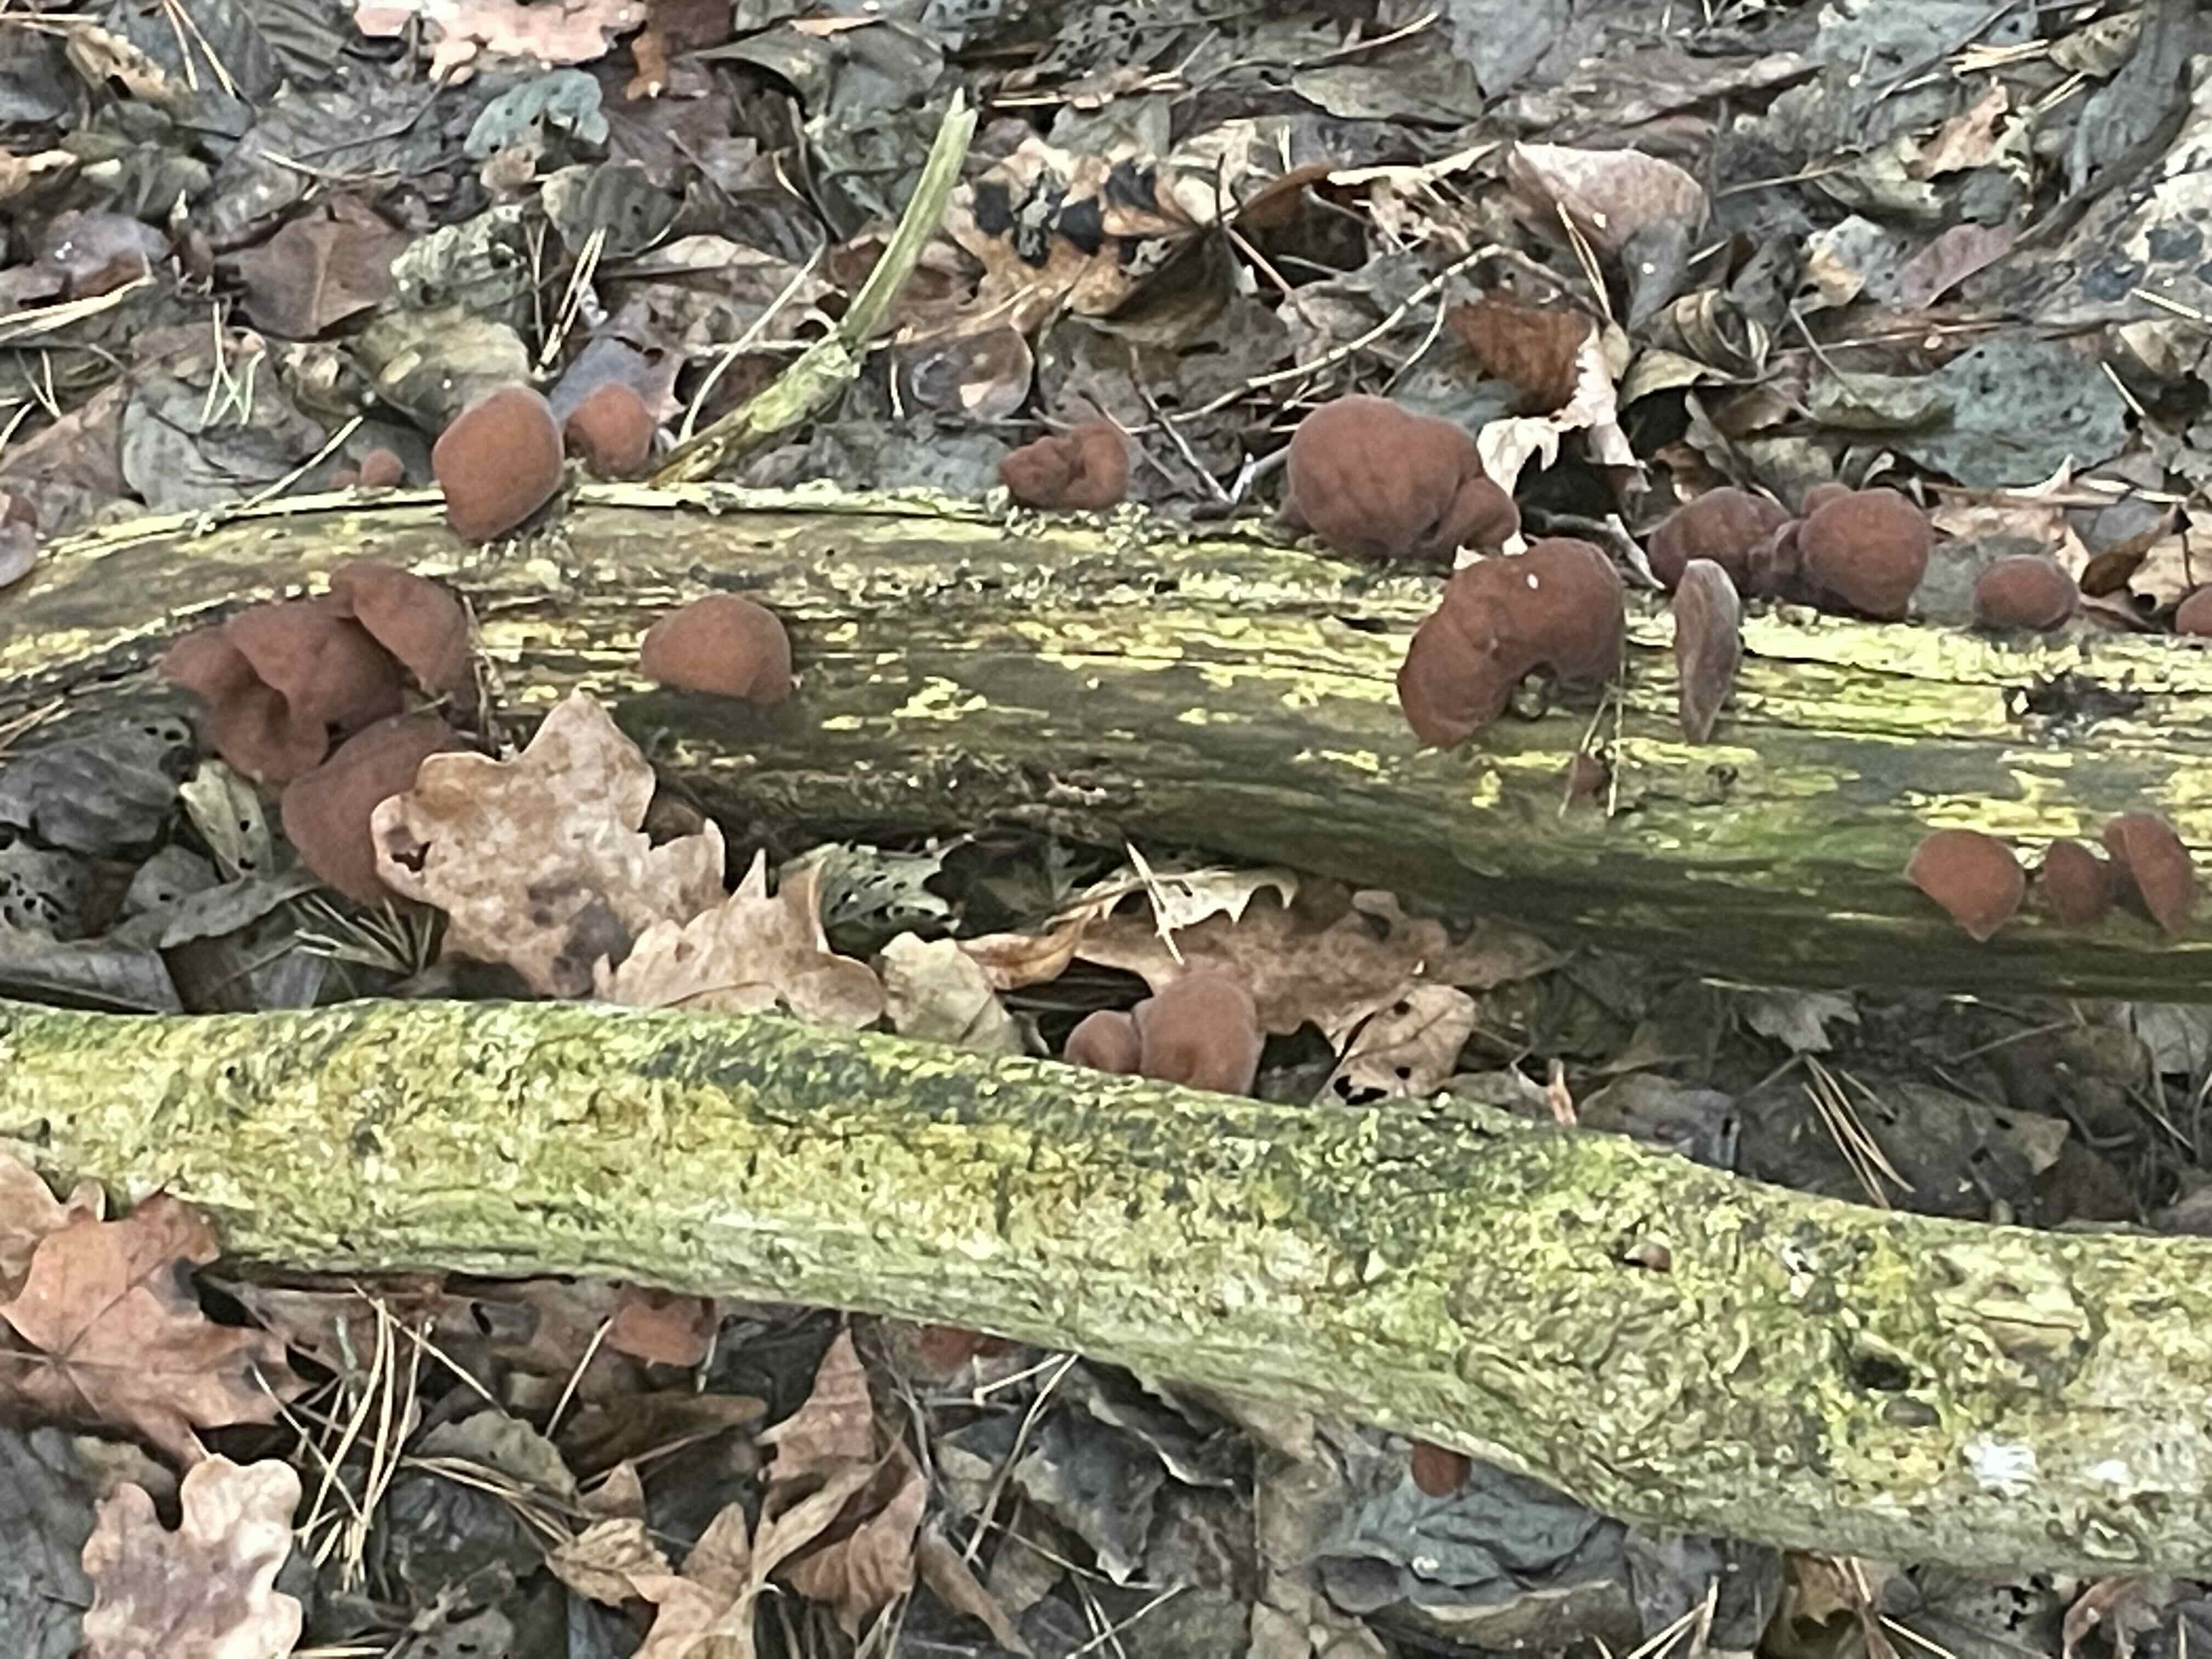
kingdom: Fungi
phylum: Basidiomycota
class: Agaricomycetes
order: Auriculariales
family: Auriculariaceae
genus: Auricularia
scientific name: Auricularia auricula-judae
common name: almindelig judasøre
